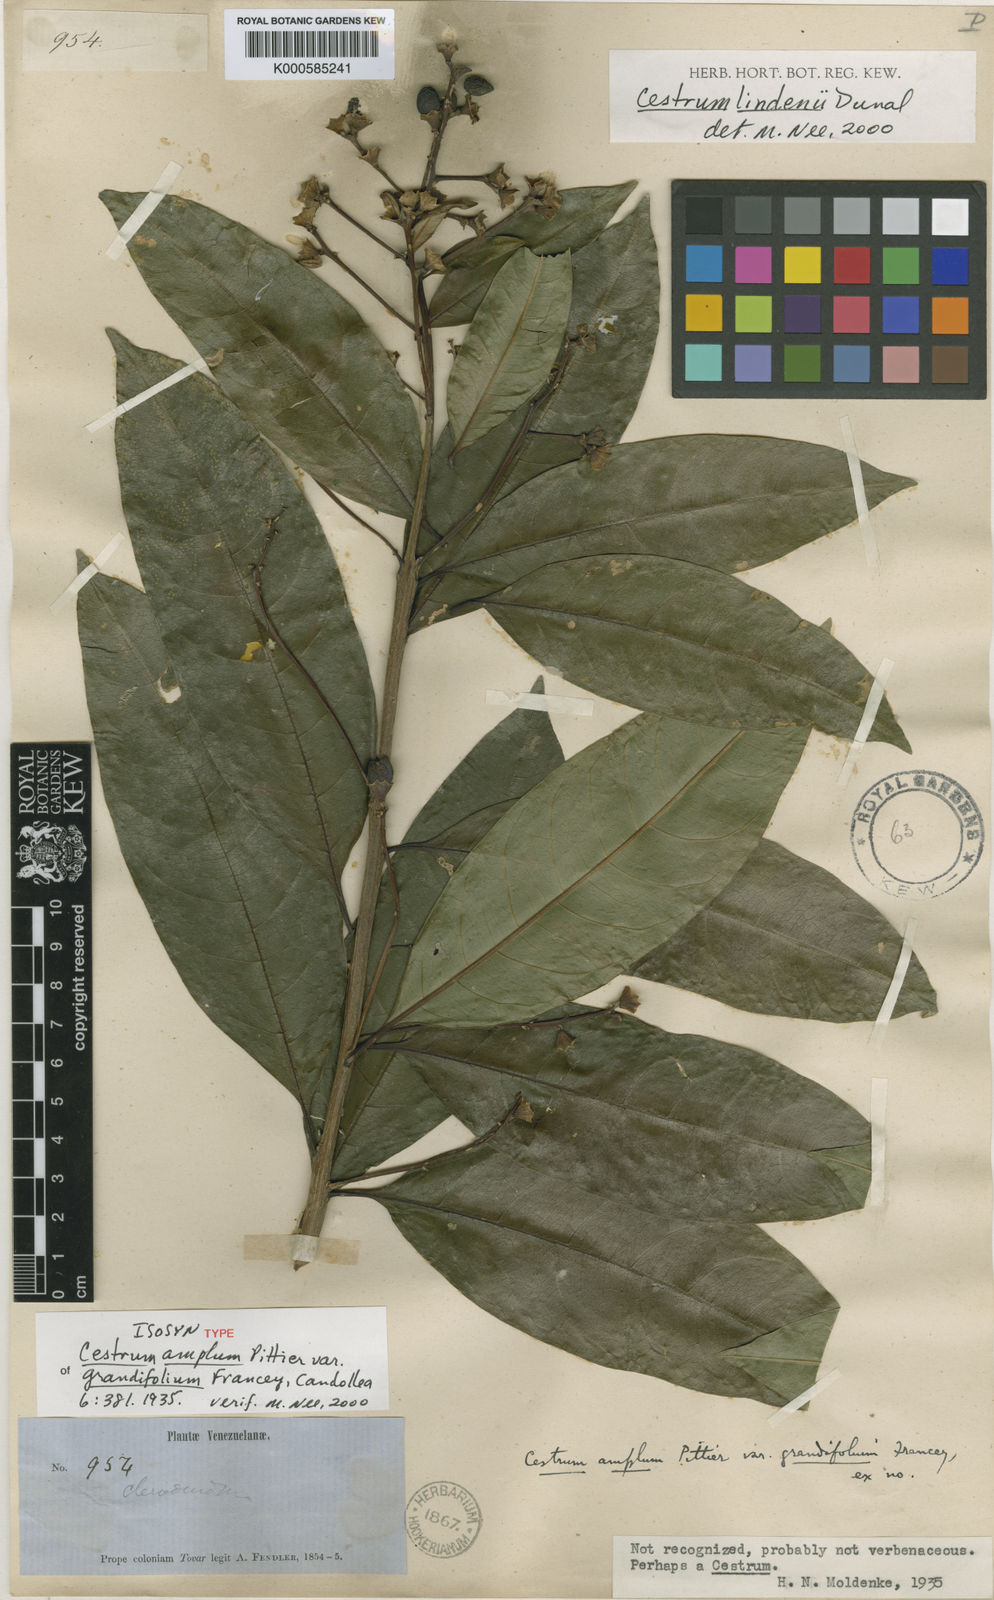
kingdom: Plantae
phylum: Tracheophyta
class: Magnoliopsida
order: Solanales
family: Solanaceae
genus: Cestrum
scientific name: Cestrum lindenii
